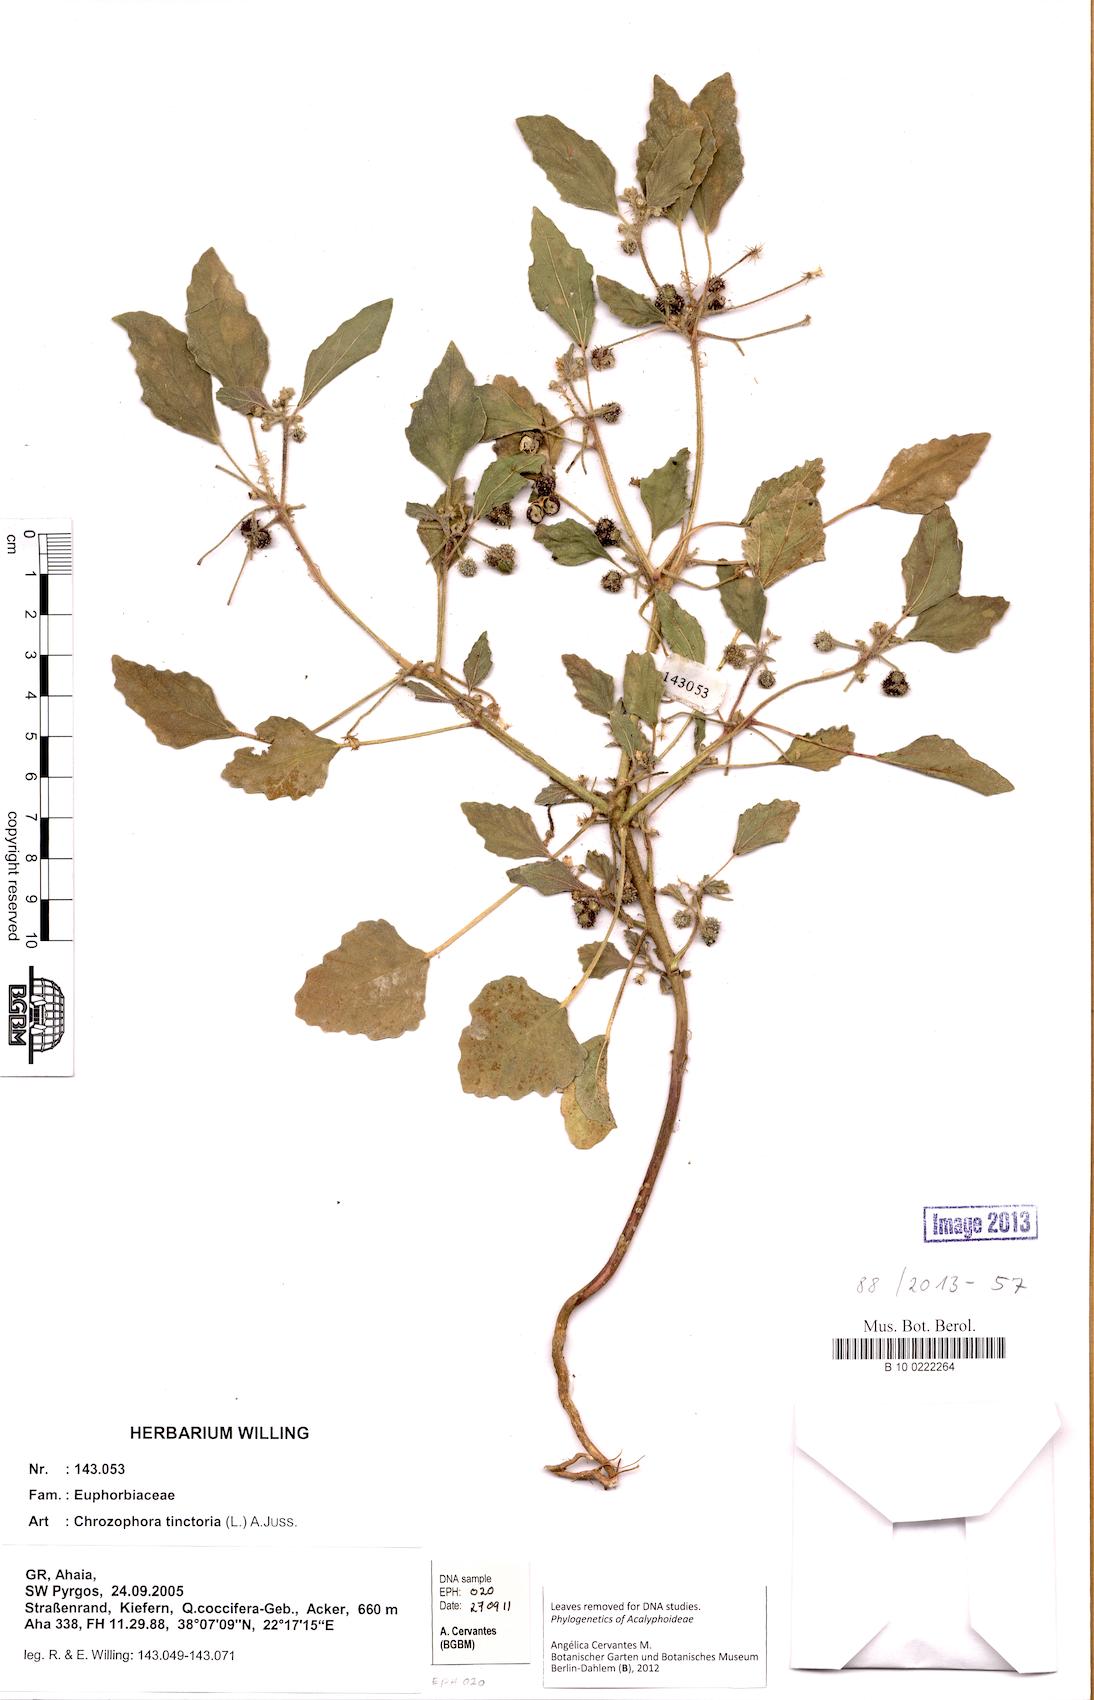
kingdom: Plantae
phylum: Tracheophyta
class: Magnoliopsida
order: Malpighiales
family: Euphorbiaceae
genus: Chrozophora
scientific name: Chrozophora tinctoria
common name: Dyer's litmus
